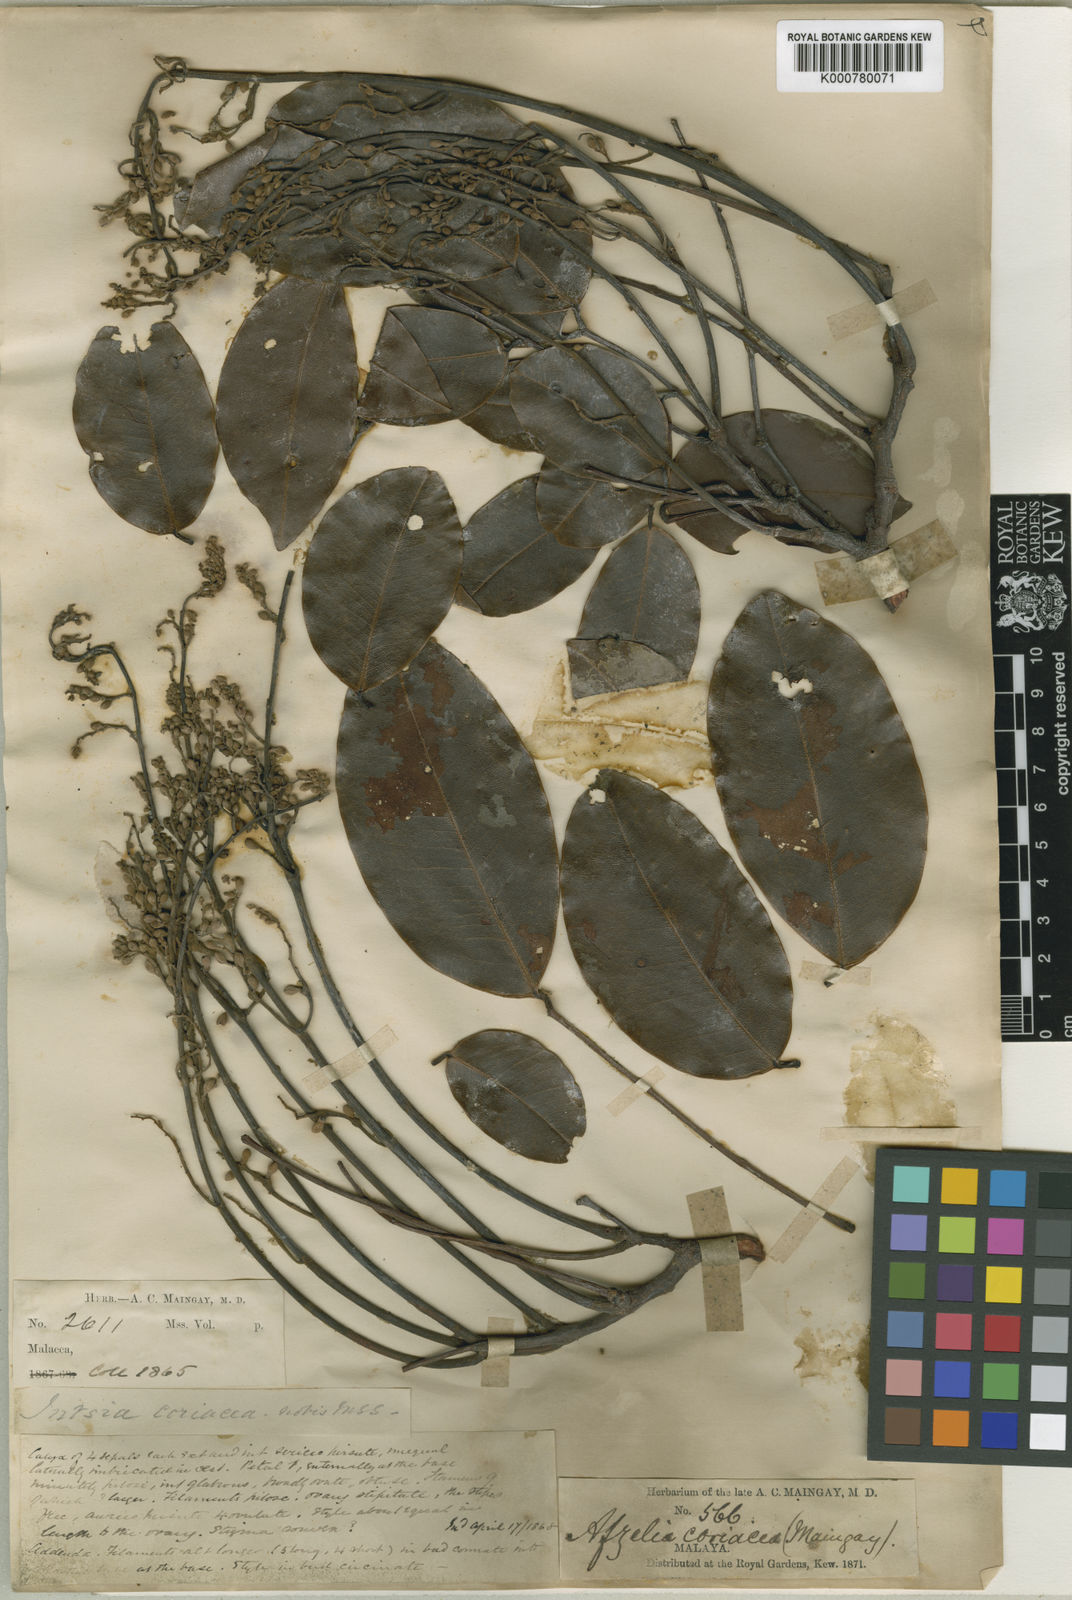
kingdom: Plantae
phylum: Tracheophyta
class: Magnoliopsida
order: Fabales
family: Fabaceae
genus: Sindora
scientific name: Sindora coriacea
